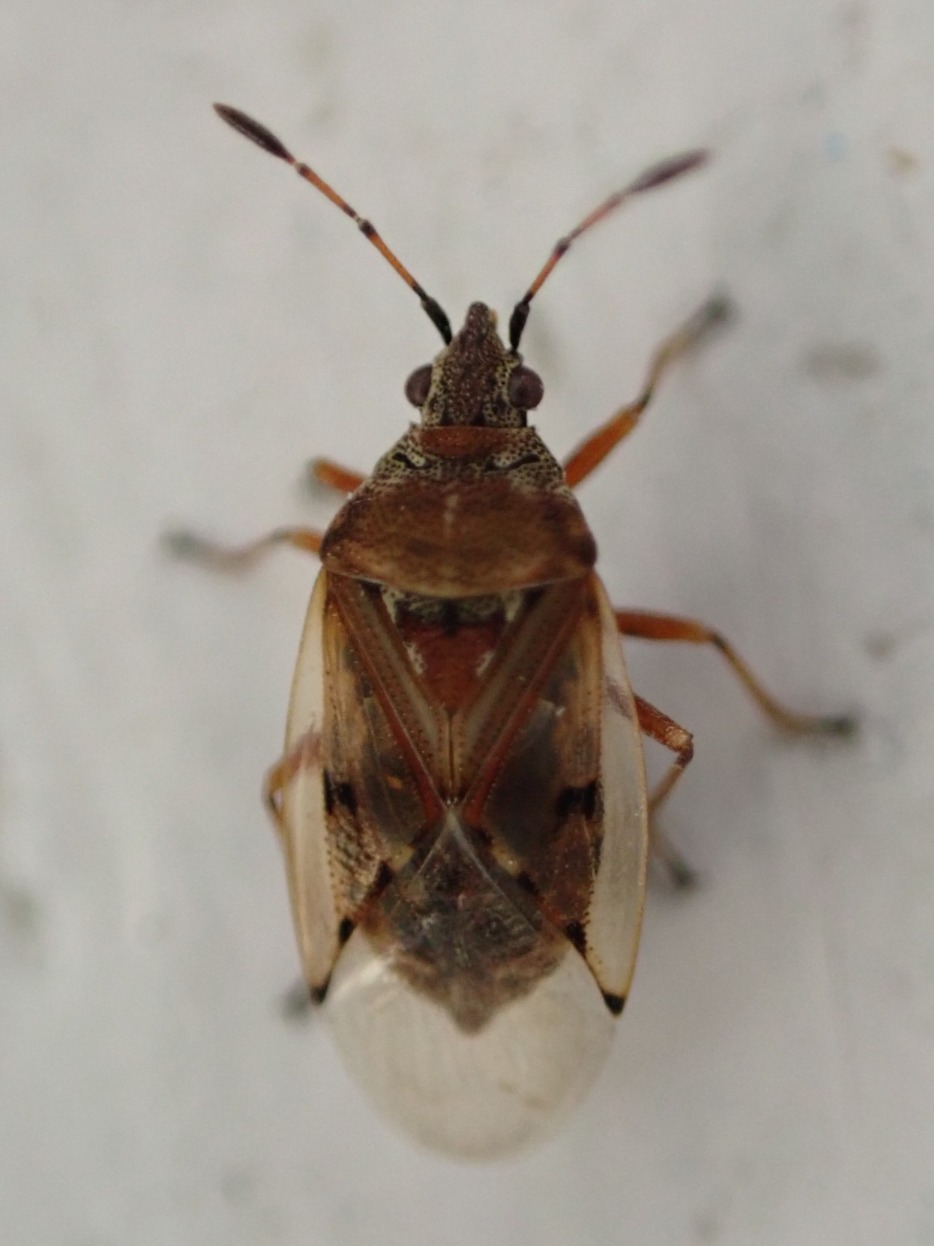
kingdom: Animalia
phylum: Arthropoda
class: Insecta
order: Hemiptera
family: Lygaeidae
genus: Kleidocerys
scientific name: Kleidocerys resedae
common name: Birkefrøtæge
